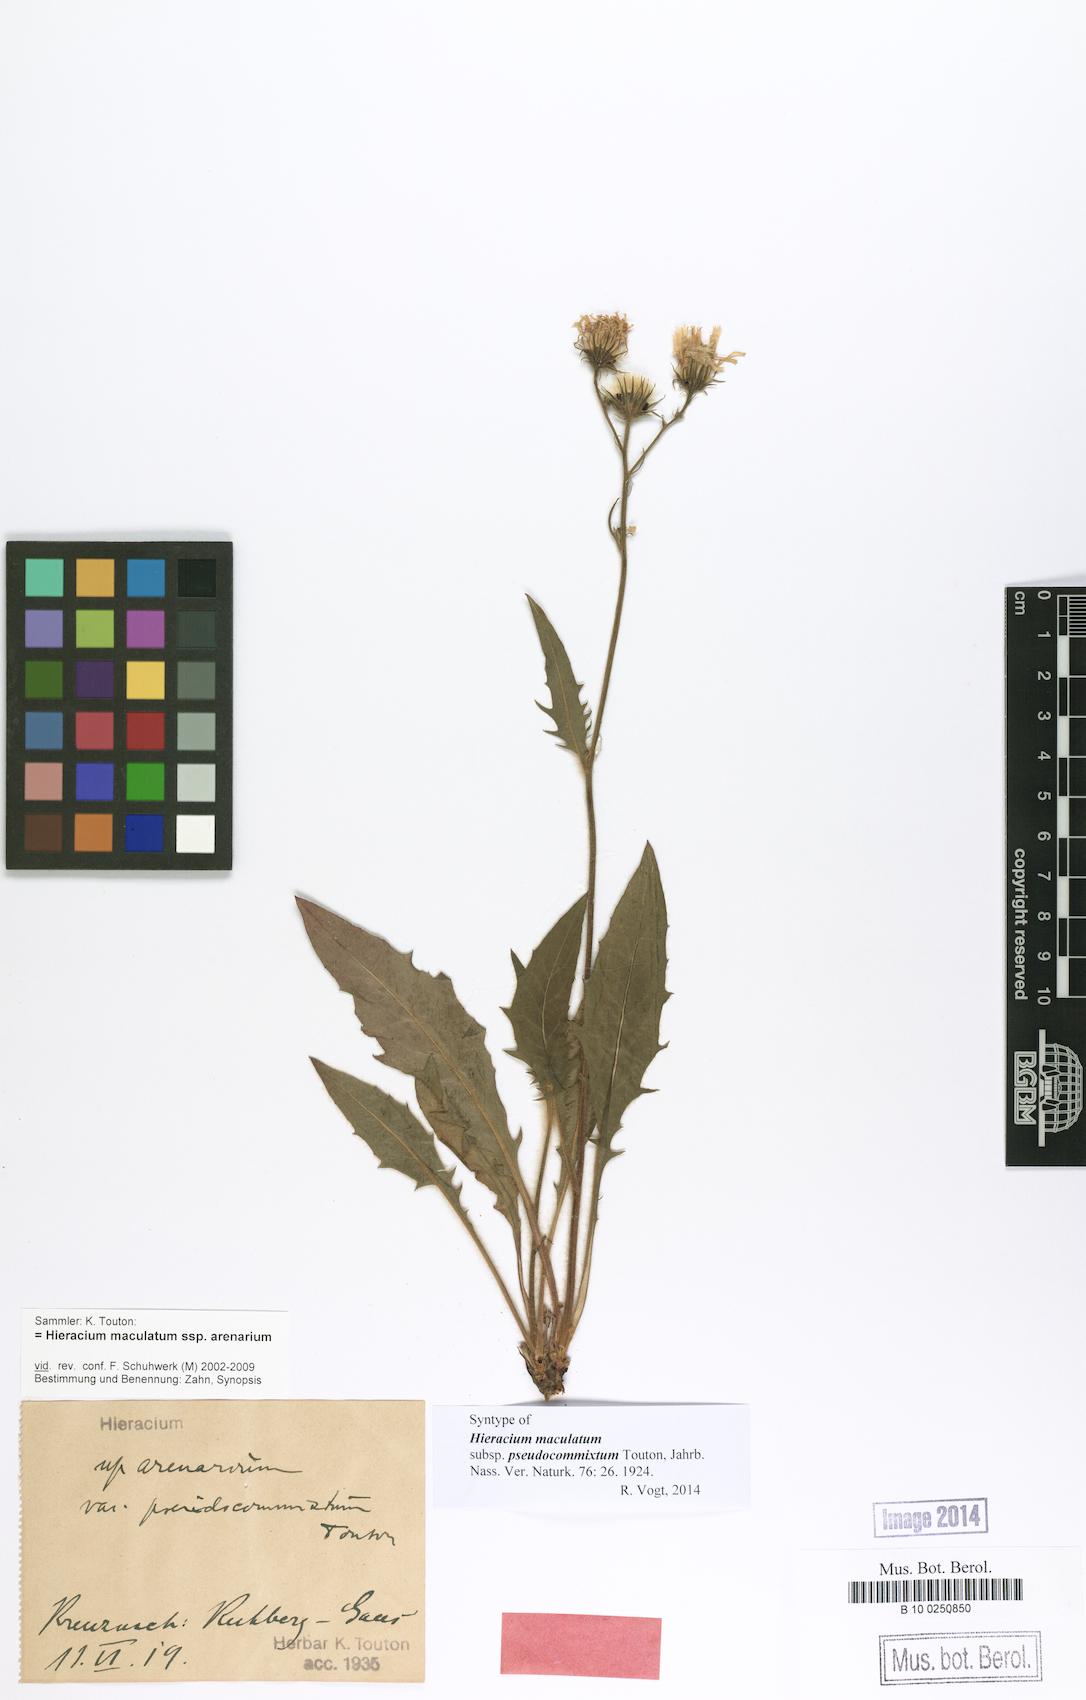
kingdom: Plantae
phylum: Tracheophyta
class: Magnoliopsida
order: Asterales
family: Asteraceae
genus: Hieracium
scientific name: Hieracium maculatum
